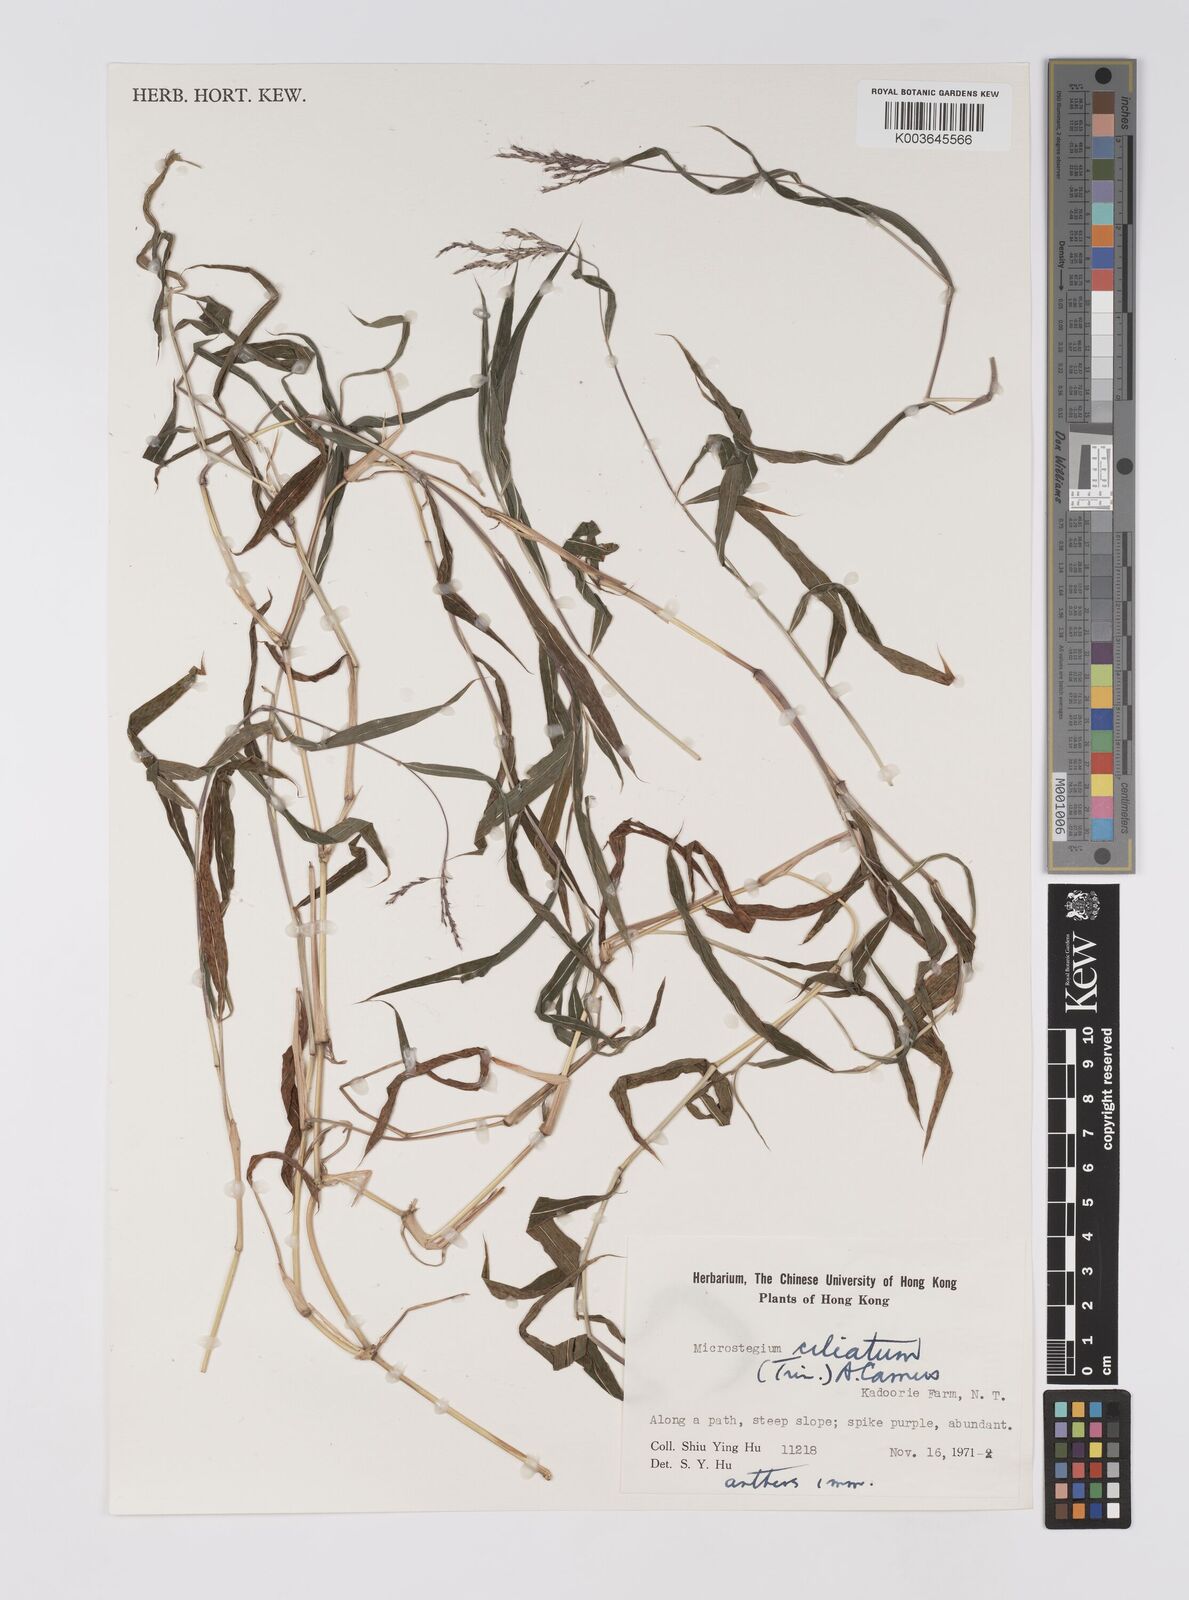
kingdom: Plantae
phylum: Tracheophyta
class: Liliopsida
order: Poales
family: Poaceae
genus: Microstegium
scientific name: Microstegium fasciculatum
